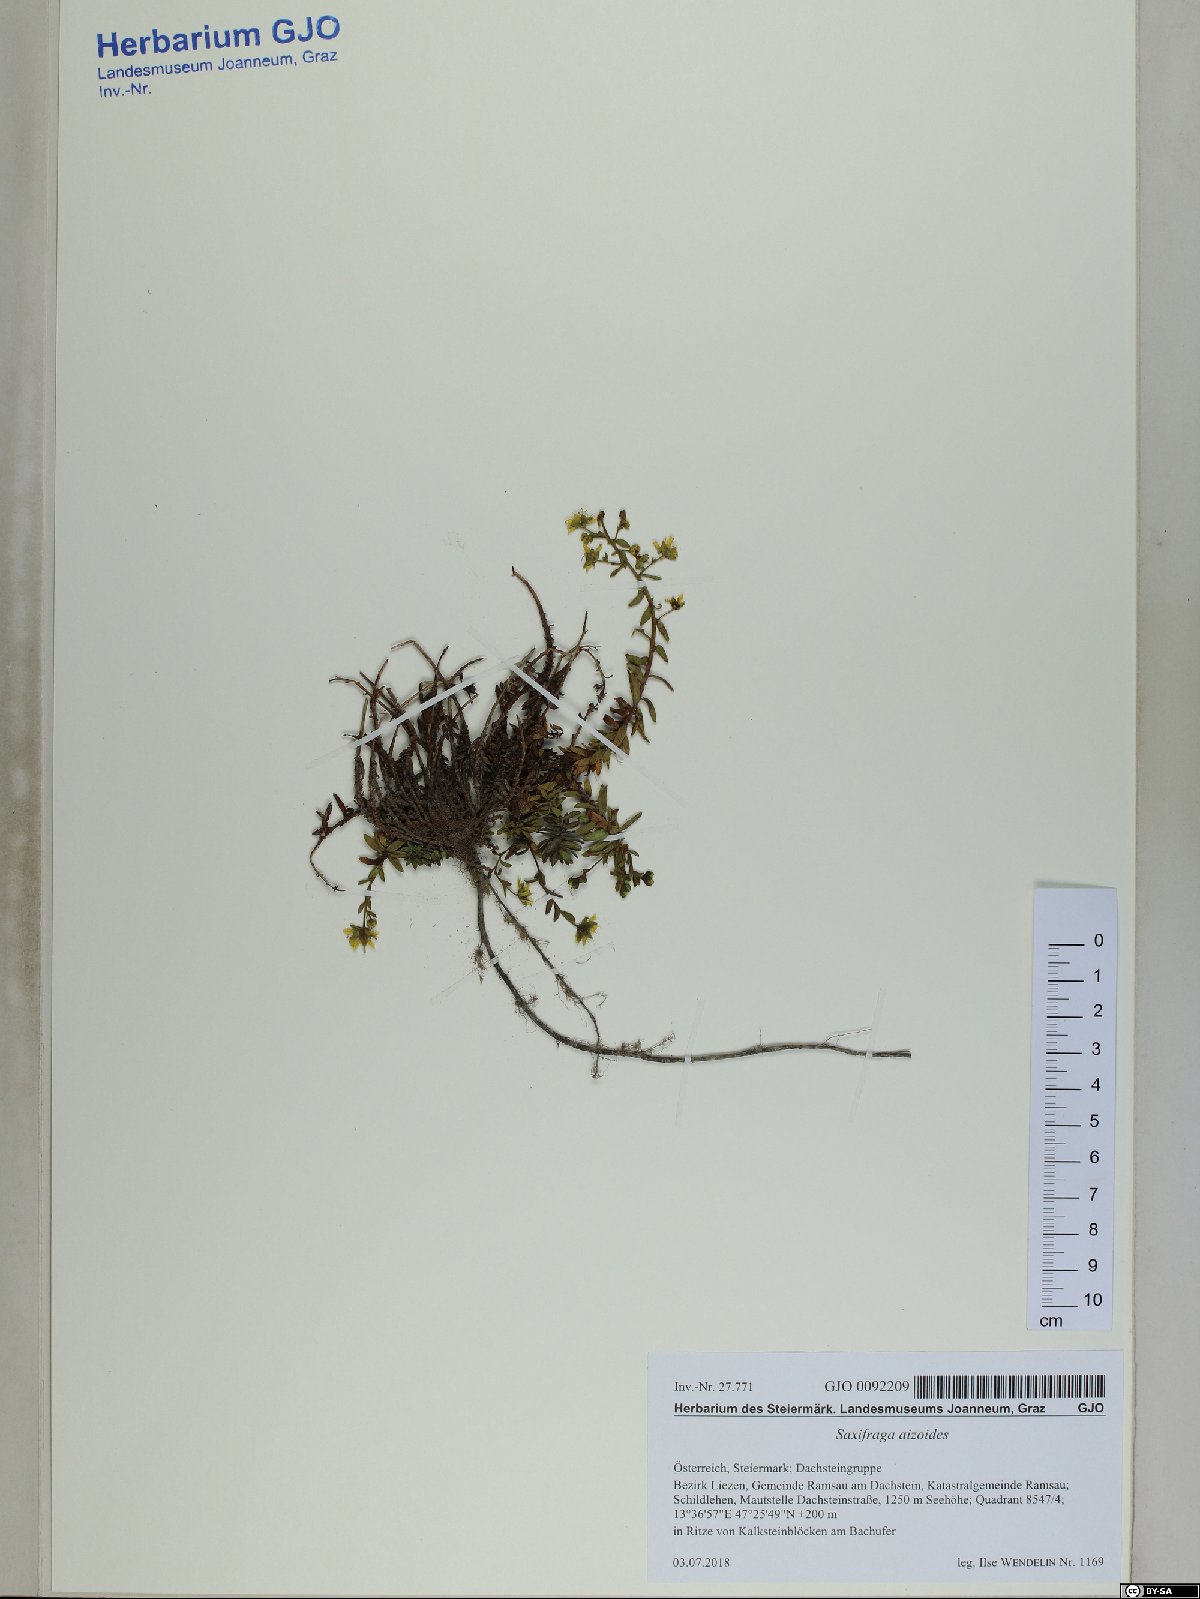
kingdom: Plantae
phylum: Tracheophyta
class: Magnoliopsida
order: Saxifragales
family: Saxifragaceae
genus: Saxifraga
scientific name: Saxifraga aizoides
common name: Yellow mountain saxifrage
